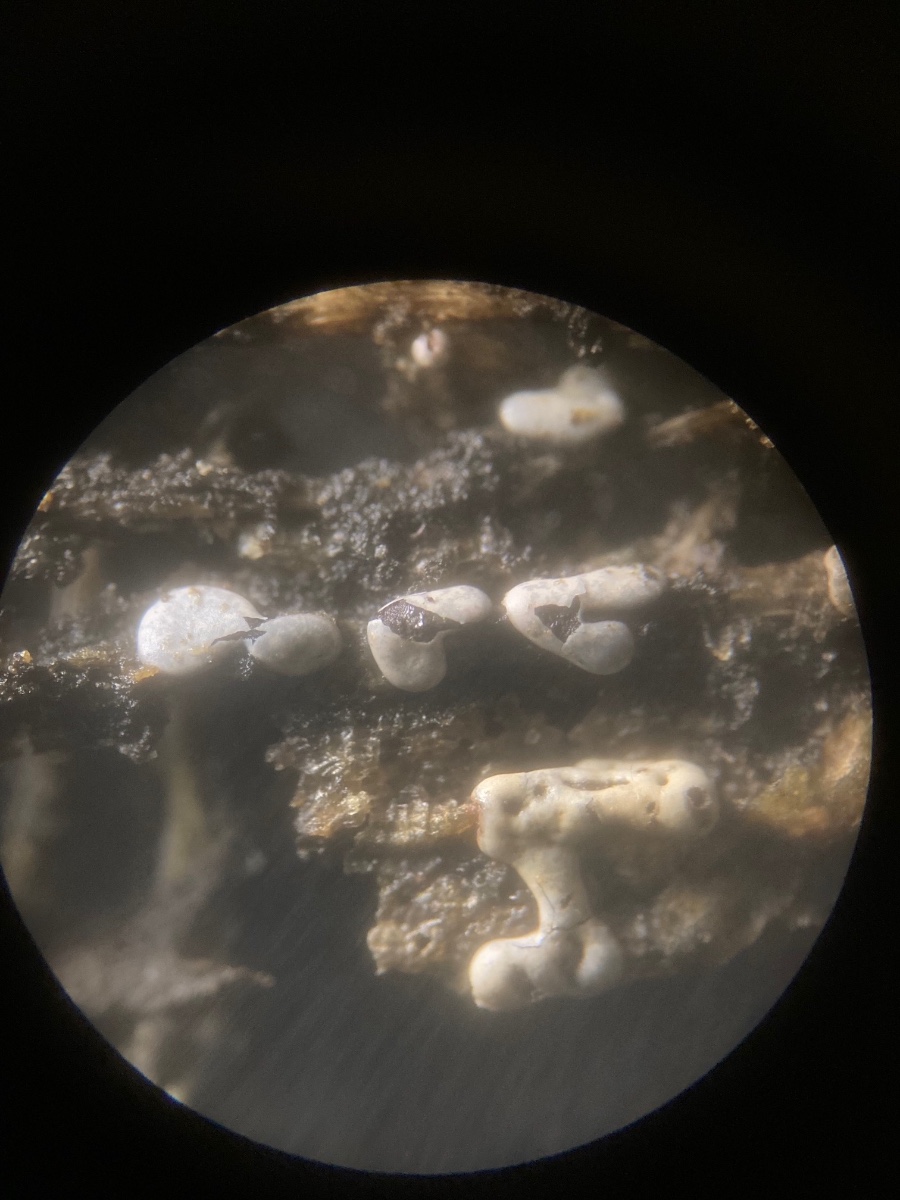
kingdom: Protozoa
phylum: Mycetozoa
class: Myxomycetes
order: Physarales
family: Didymiaceae
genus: Didymium
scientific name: Didymium difforme
